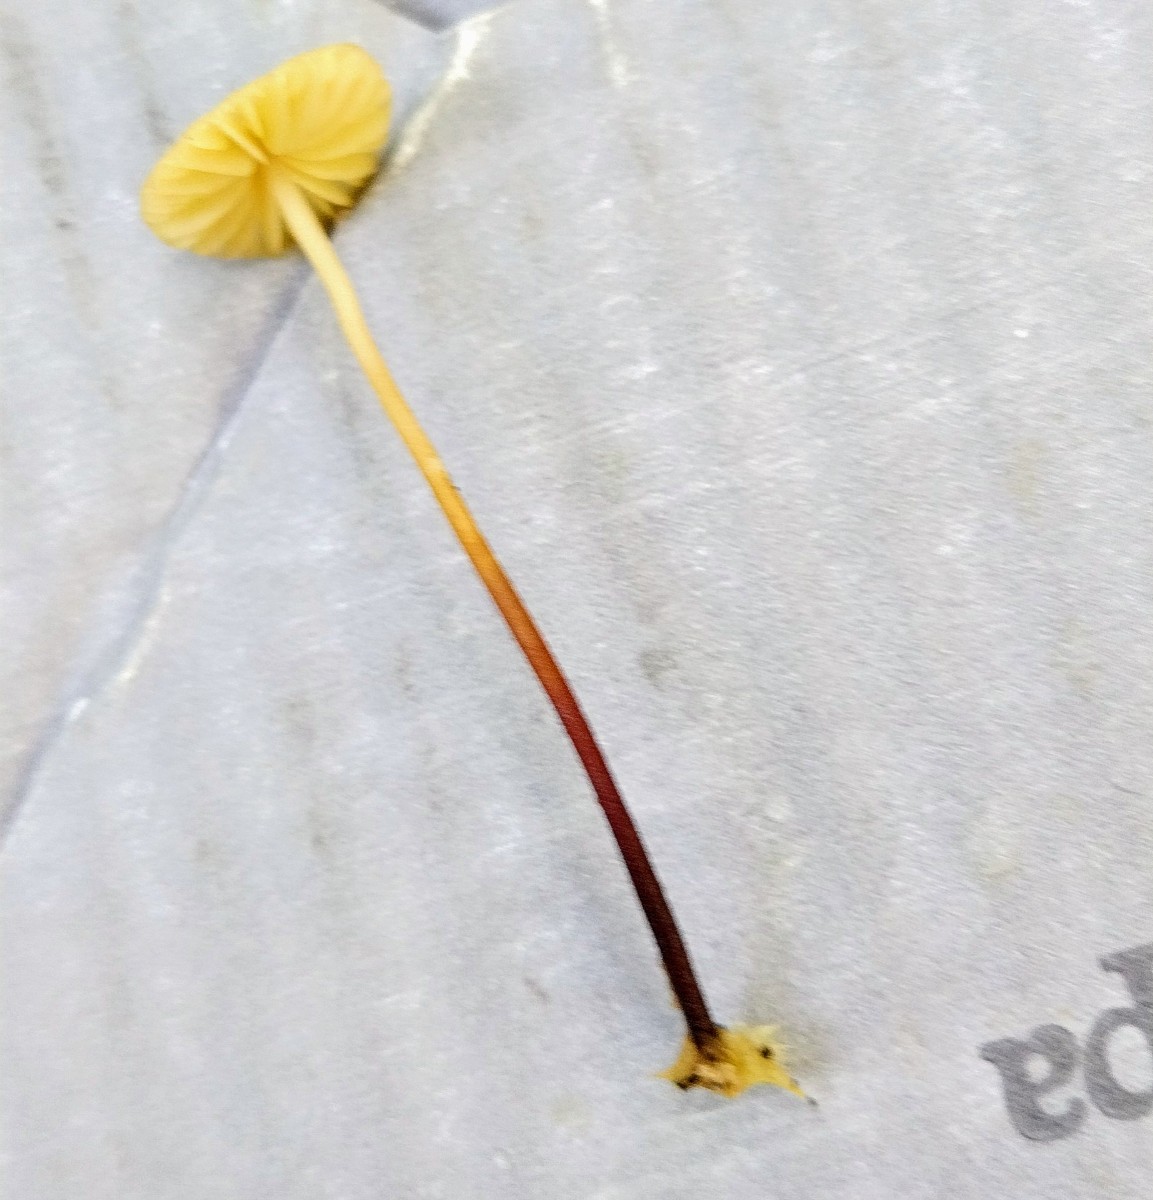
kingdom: Fungi
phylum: Basidiomycota
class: Agaricomycetes
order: Agaricales
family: Marasmiaceae
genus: Marasmius
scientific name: Marasmius torquescens
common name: filtfodet bruskhat
